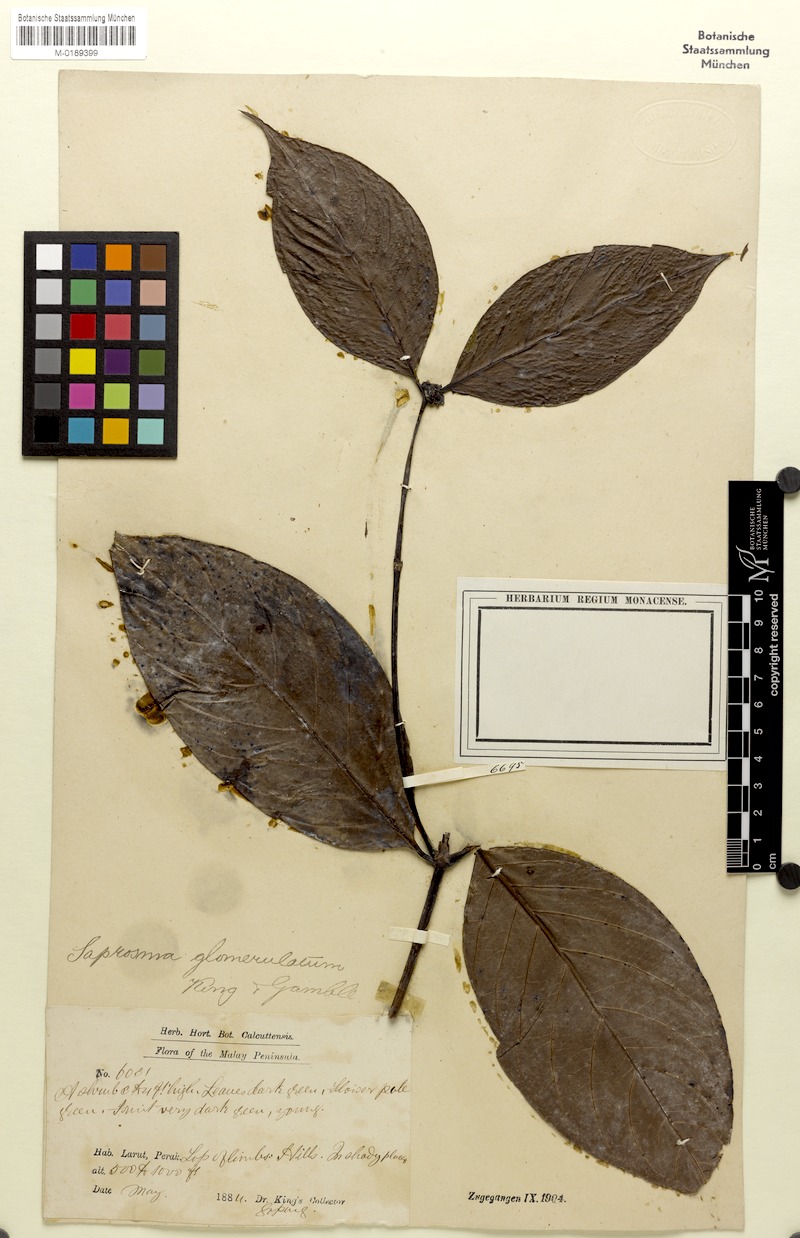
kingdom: Plantae
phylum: Tracheophyta
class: Magnoliopsida
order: Gentianales
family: Rubiaceae
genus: Saprosma
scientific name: Saprosma glomerulata
